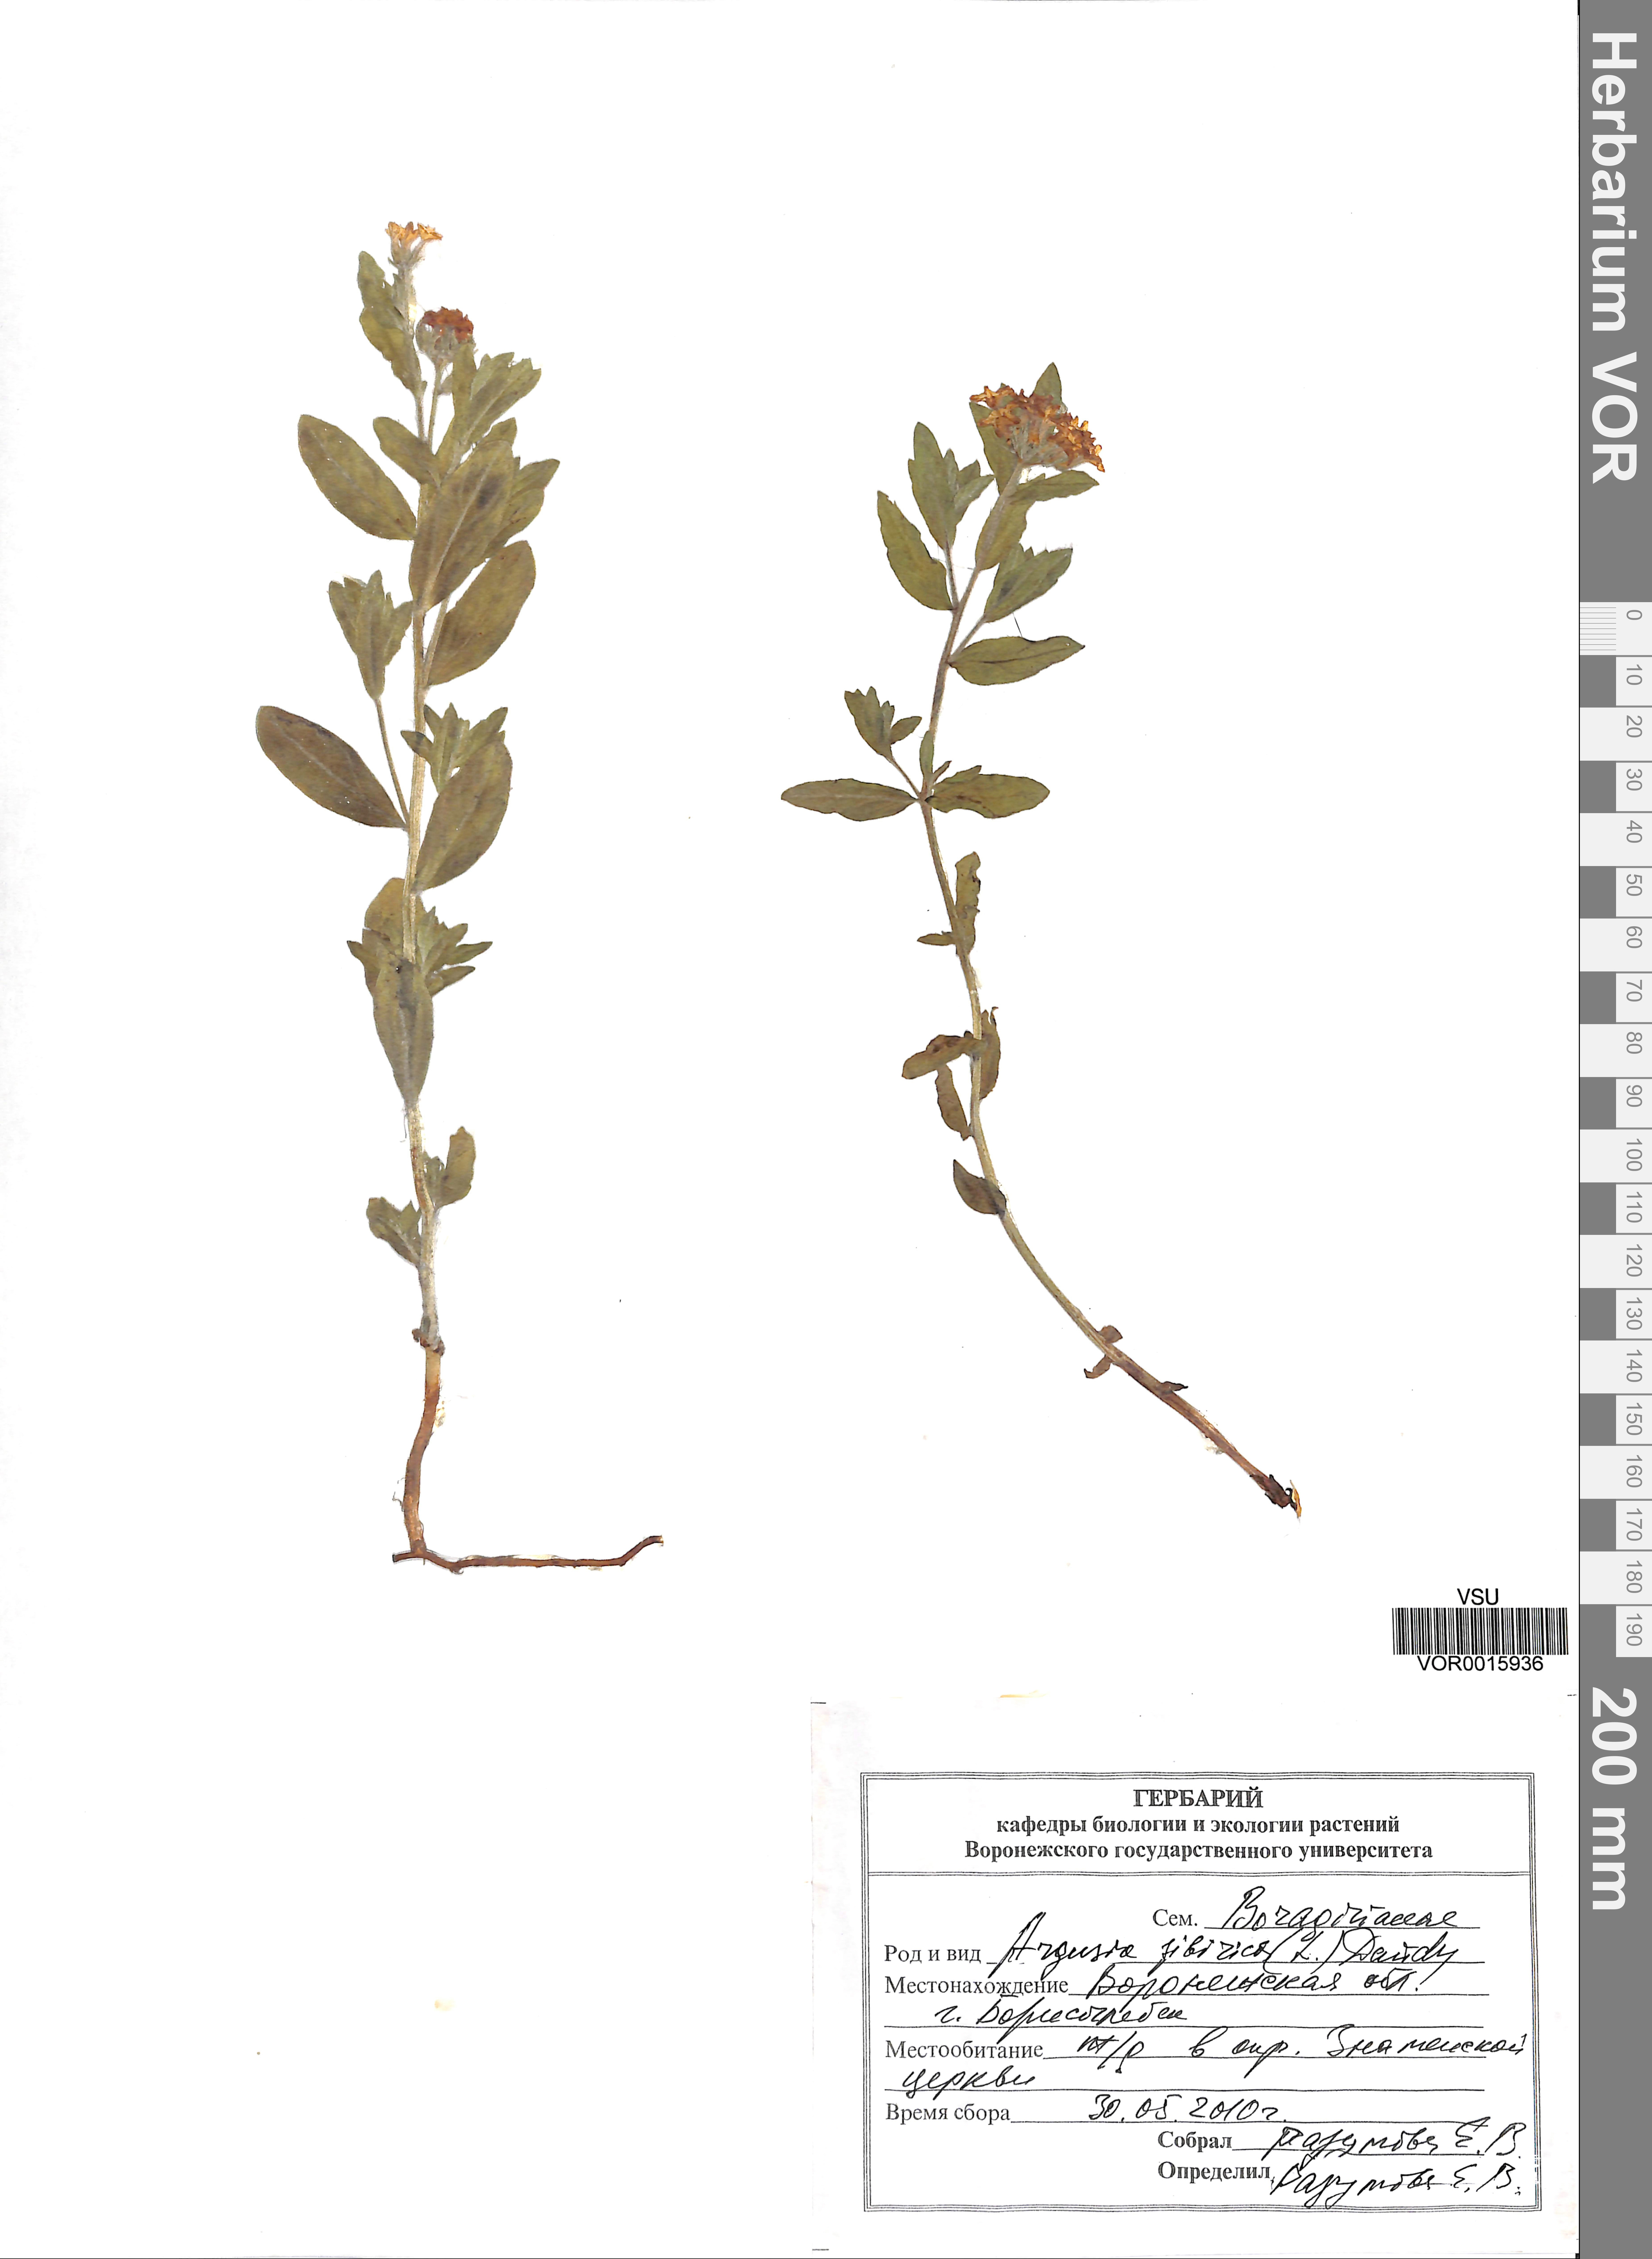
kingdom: Plantae
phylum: Tracheophyta
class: Magnoliopsida
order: Boraginales
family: Heliotropiaceae
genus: Tournefortia
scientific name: Tournefortia sibirica
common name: Siberian sea rosemary
